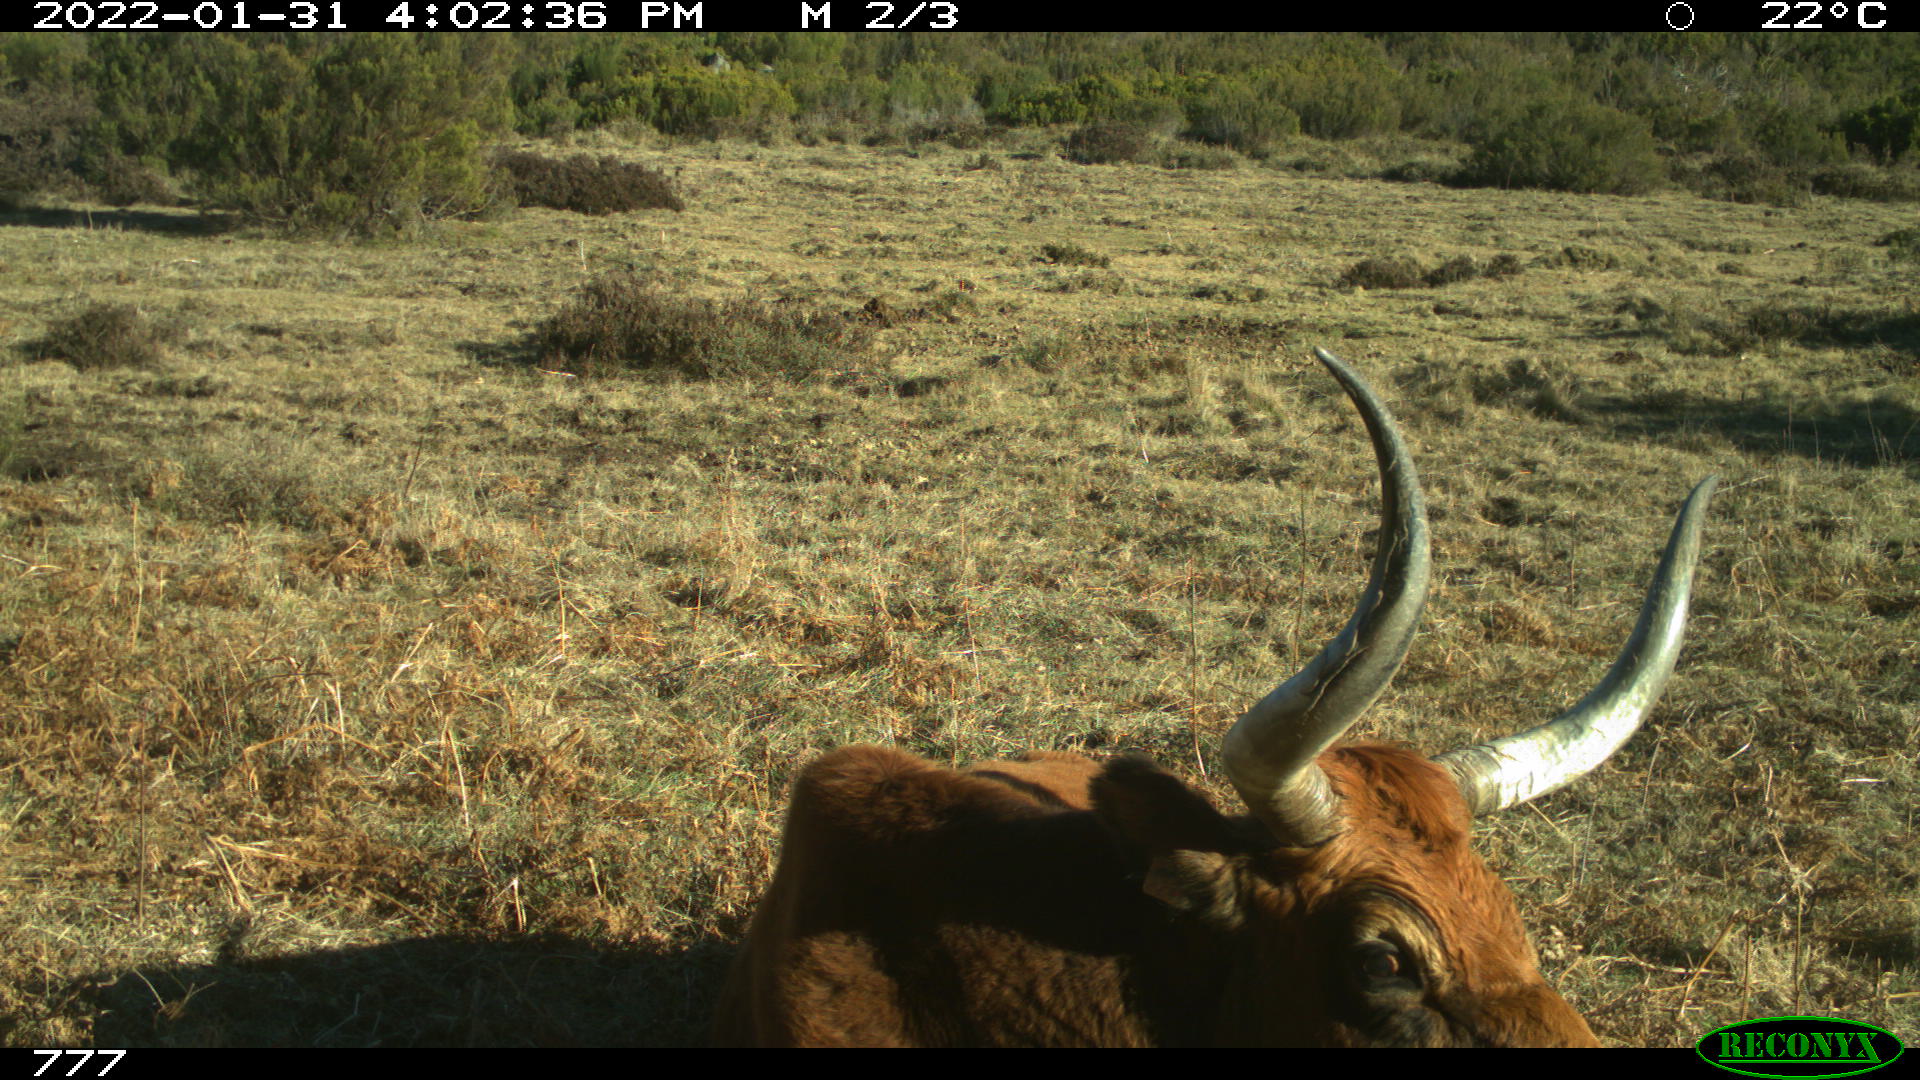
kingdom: Animalia
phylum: Chordata
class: Mammalia
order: Artiodactyla
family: Bovidae
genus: Bos
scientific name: Bos taurus
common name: Domesticated cattle
